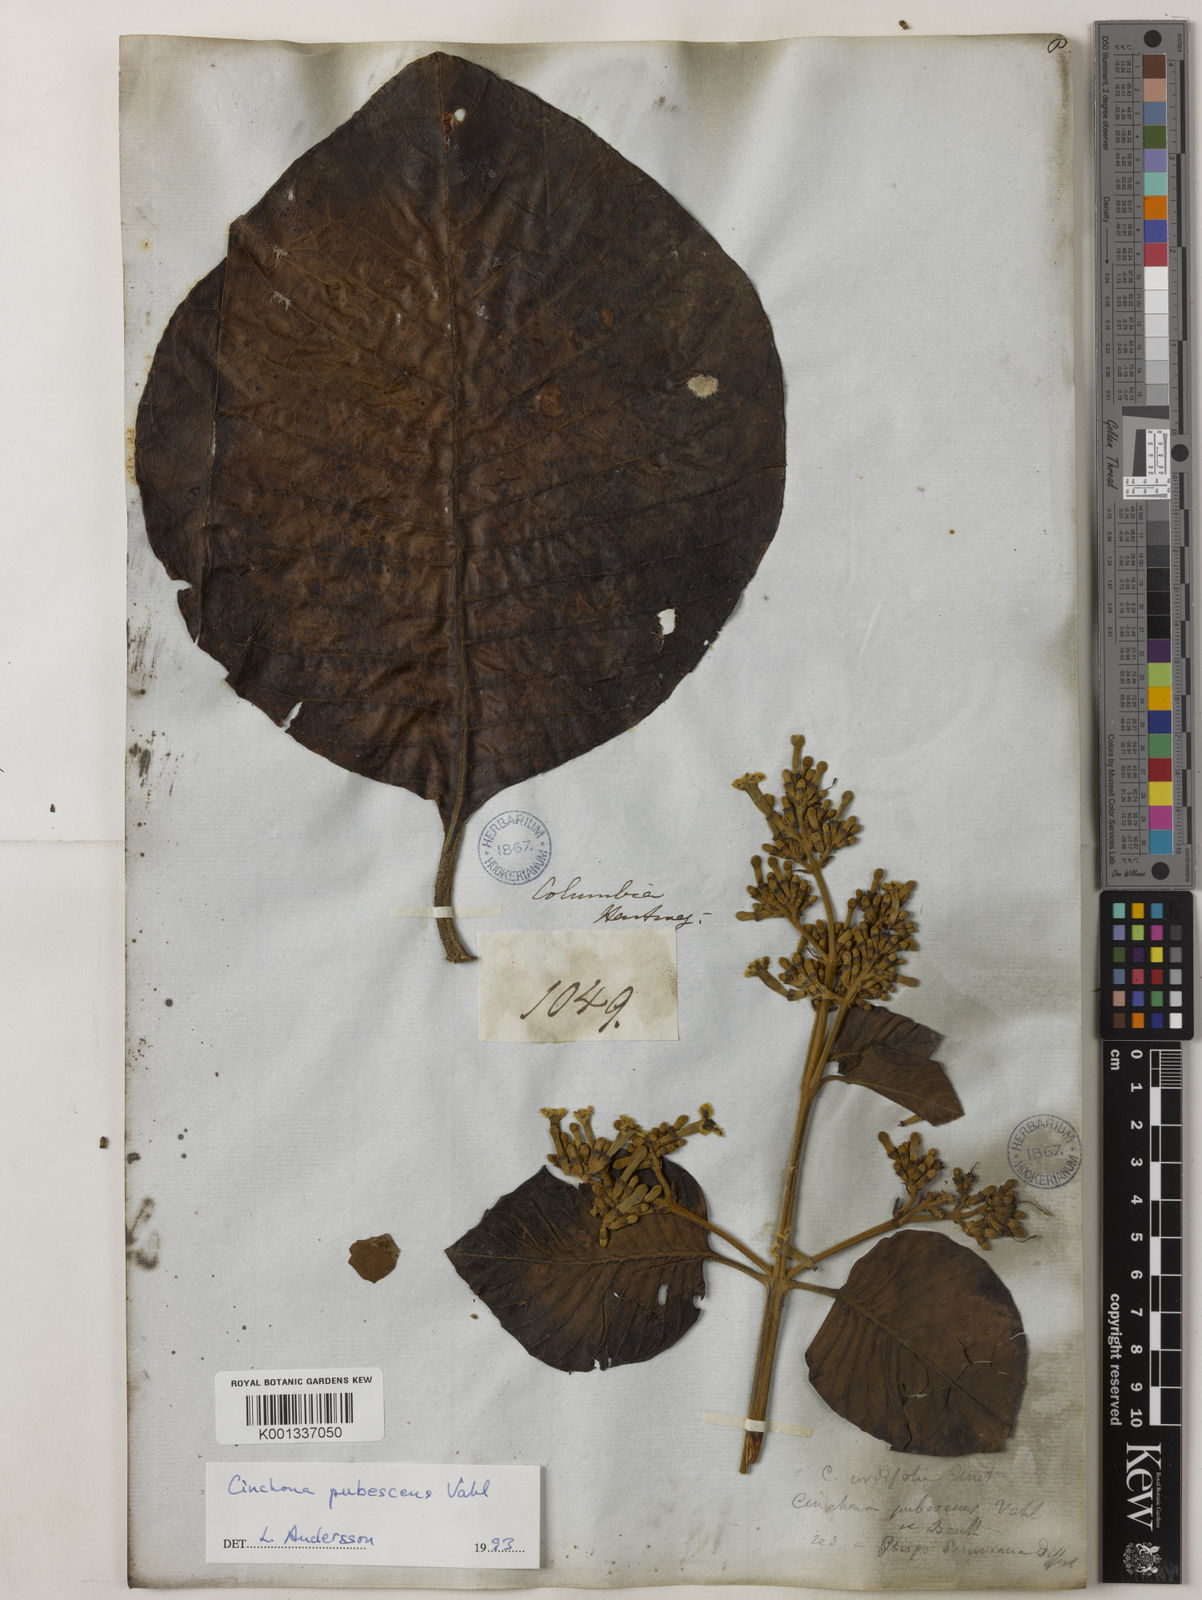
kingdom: Plantae
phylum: Tracheophyta
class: Magnoliopsida
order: Gentianales
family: Rubiaceae
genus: Cinchona
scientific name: Cinchona pubescens
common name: Quinine
